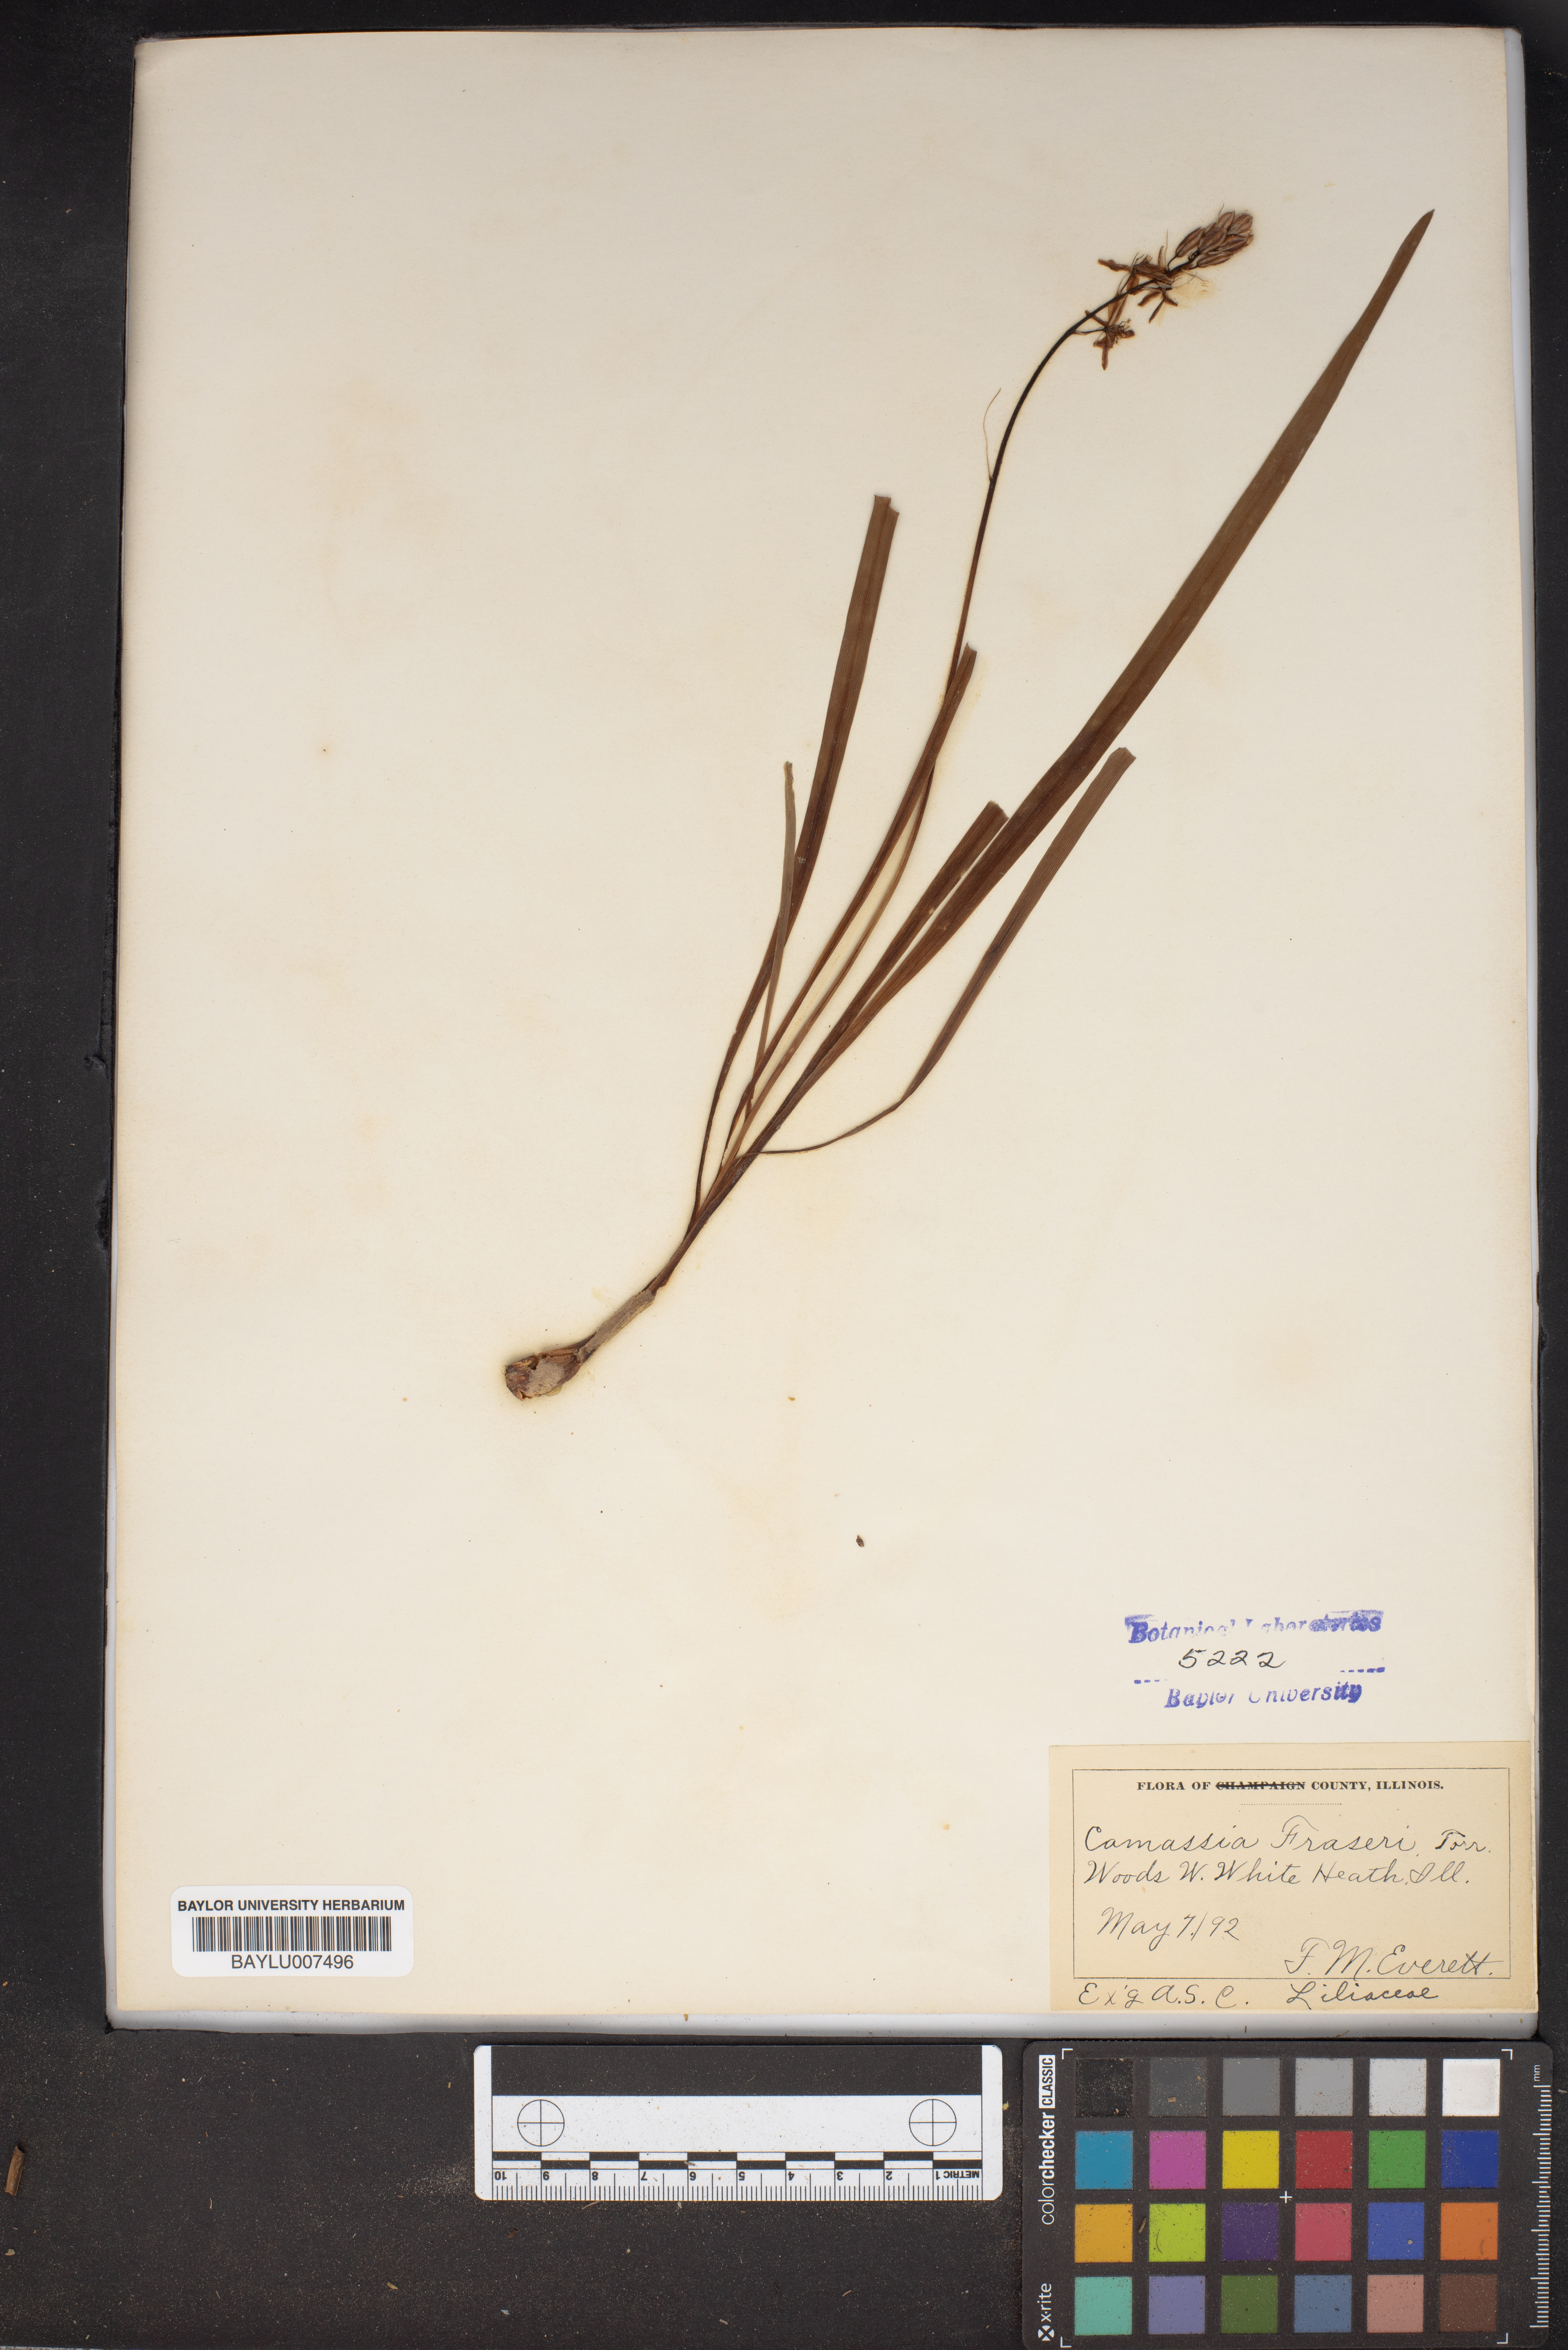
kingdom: Plantae
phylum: Tracheophyta
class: Liliopsida
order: Asparagales
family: Asparagaceae
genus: Camassia
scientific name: Camassia scilloides
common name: Wild hyacinth
